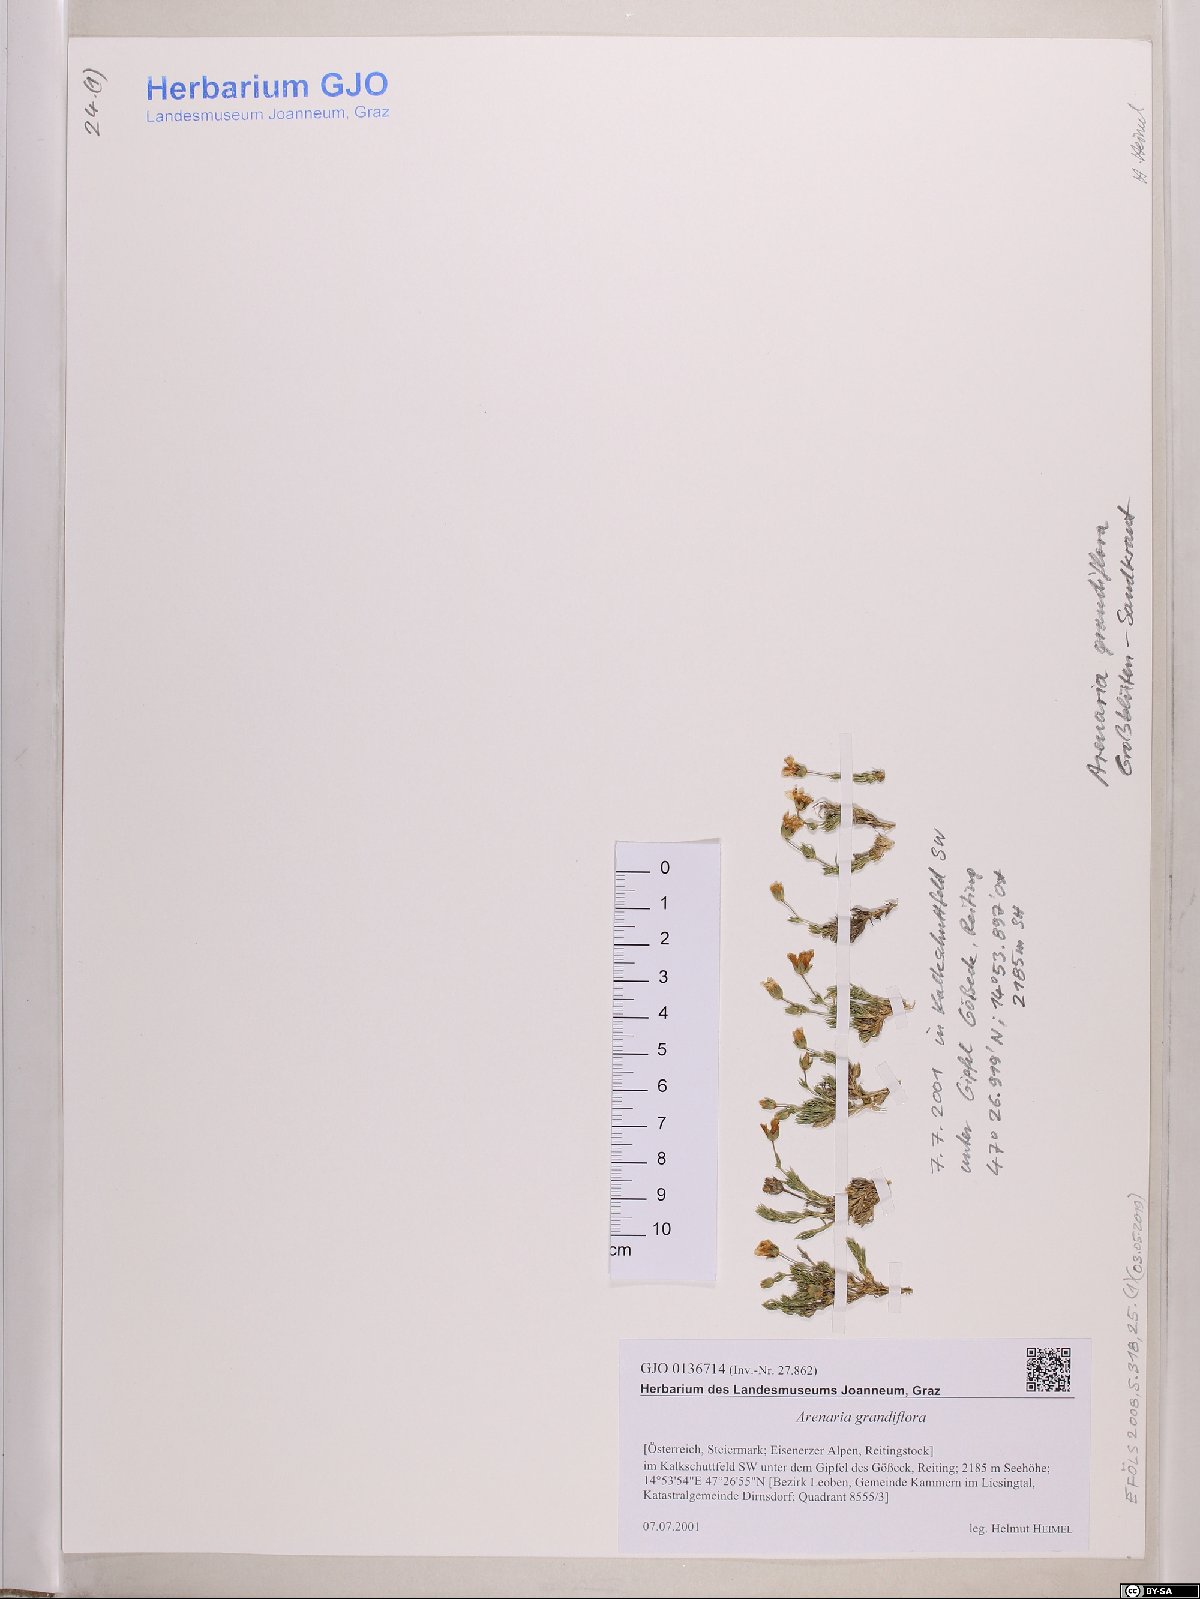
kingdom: Plantae
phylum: Tracheophyta
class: Magnoliopsida
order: Caryophyllales
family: Caryophyllaceae
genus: Arenaria
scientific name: Arenaria grandiflora
